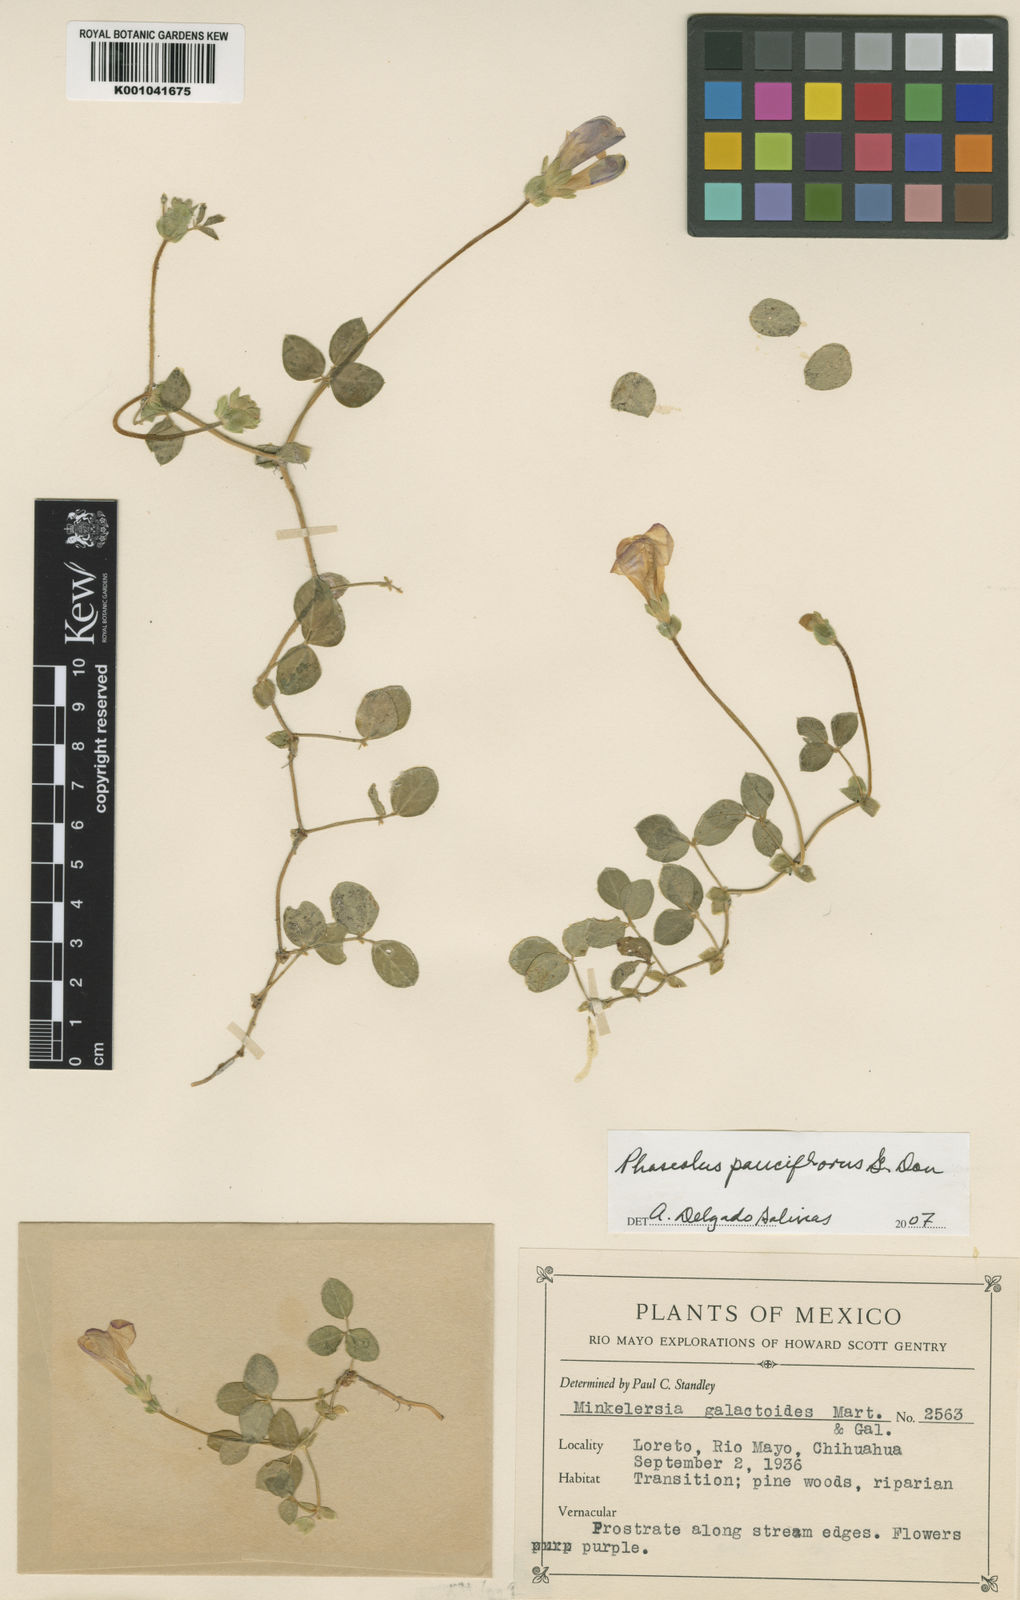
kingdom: Plantae
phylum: Tracheophyta
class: Magnoliopsida
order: Fabales
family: Fabaceae
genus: Phaseolus
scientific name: Phaseolus
